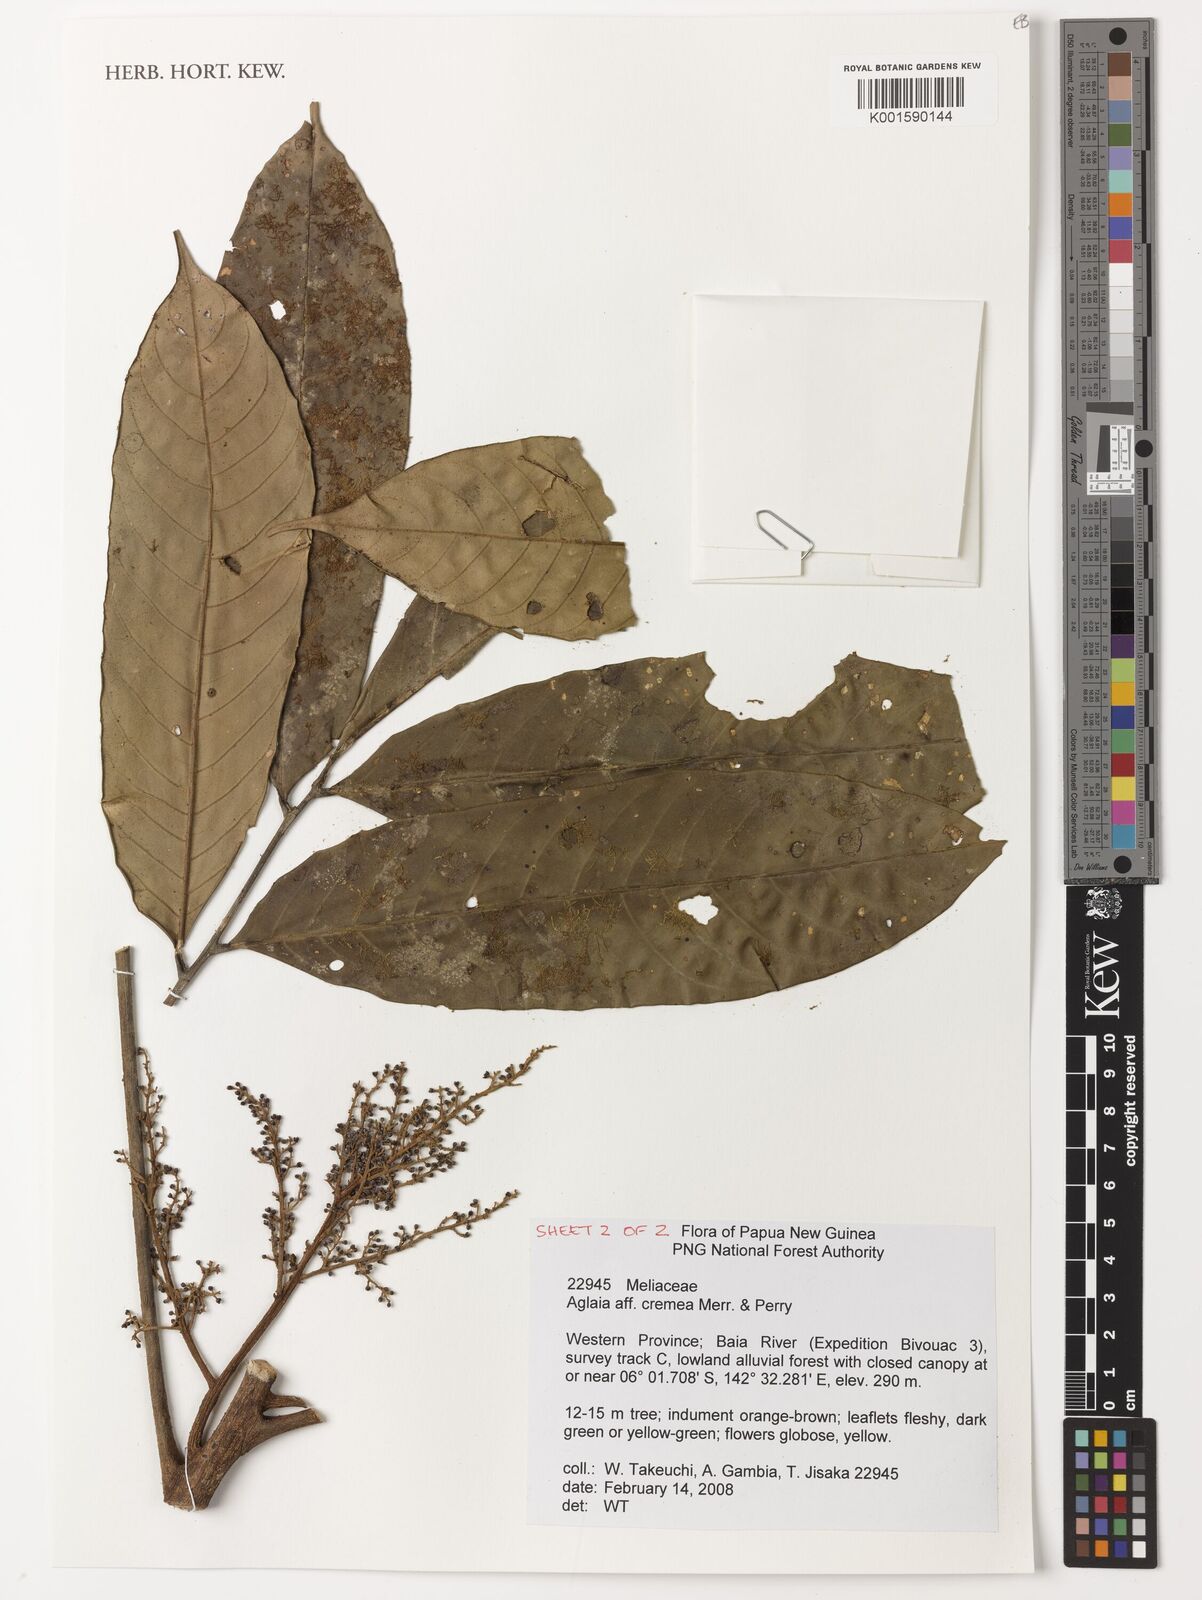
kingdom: Plantae
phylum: Tracheophyta
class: Magnoliopsida
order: Sapindales
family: Meliaceae
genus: Aglaia
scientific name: Aglaia cremea
